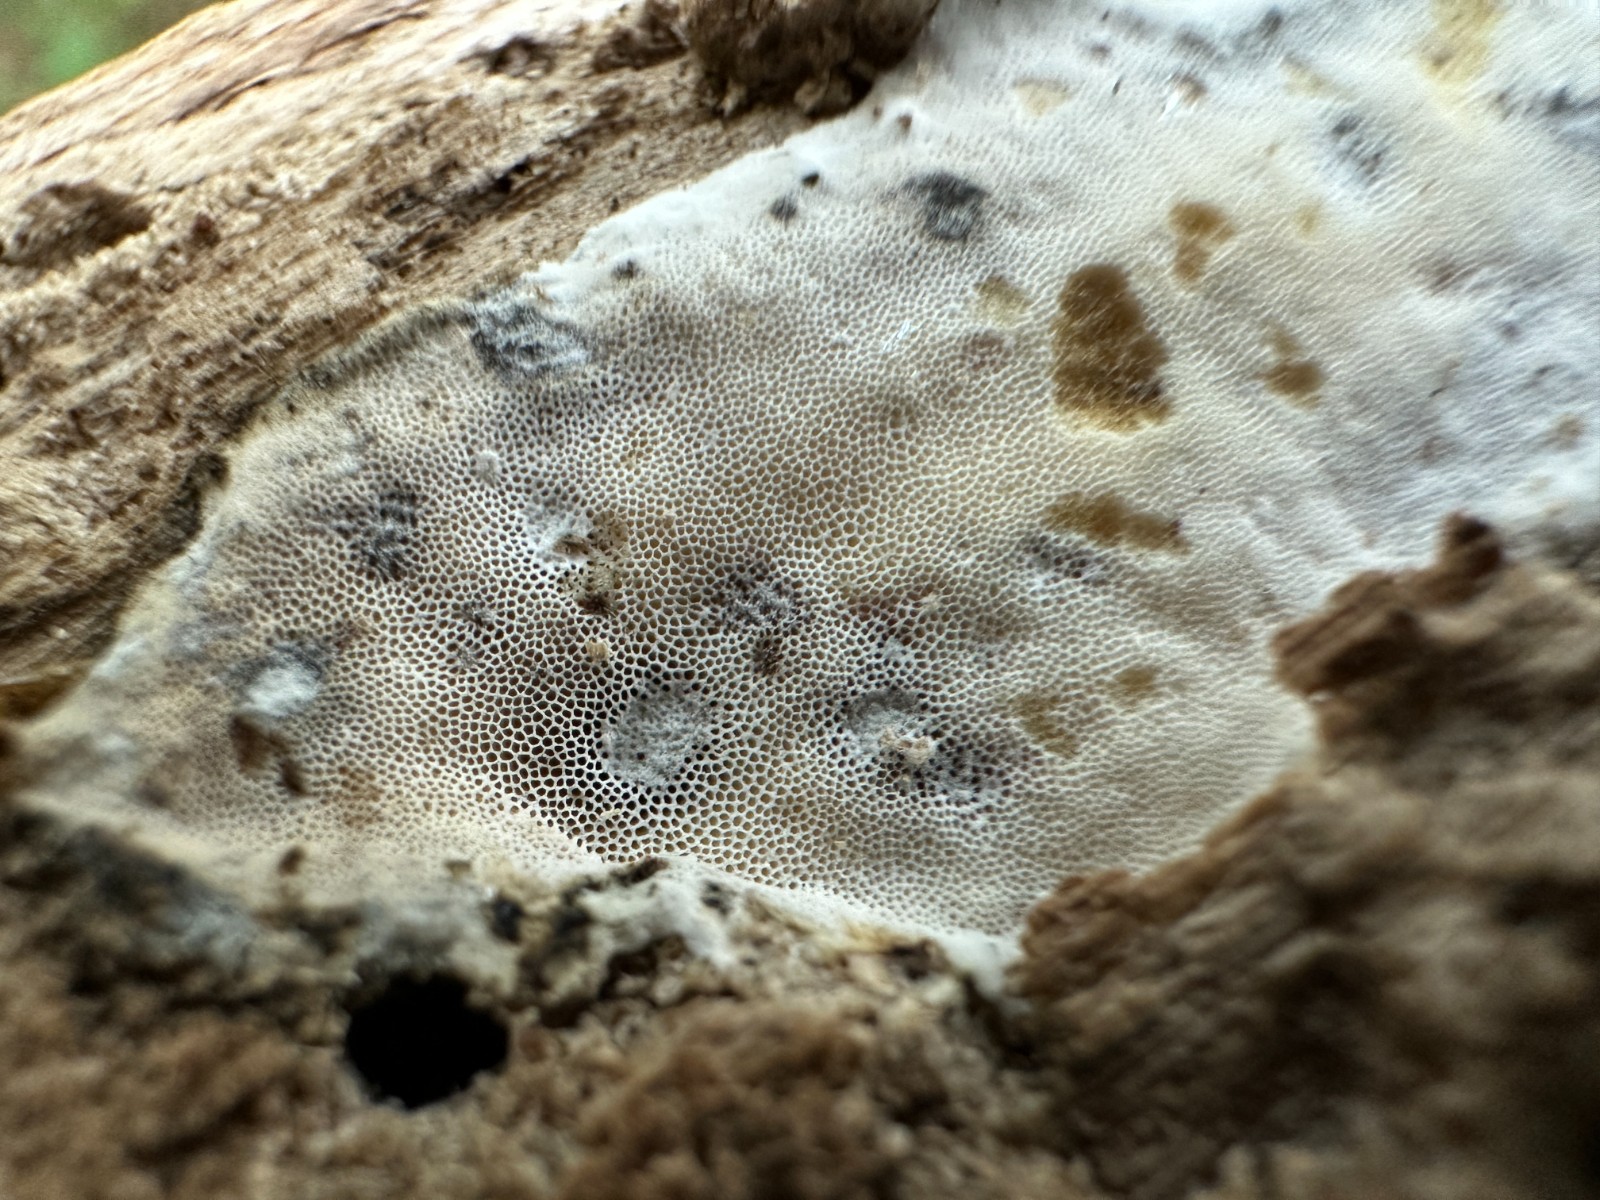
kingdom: Fungi
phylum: Ascomycota
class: Sordariomycetes
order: Hypocreales
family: Hypocreaceae
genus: Protocrea
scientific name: Protocrea farinosa
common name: krystalpore-kødkerne
